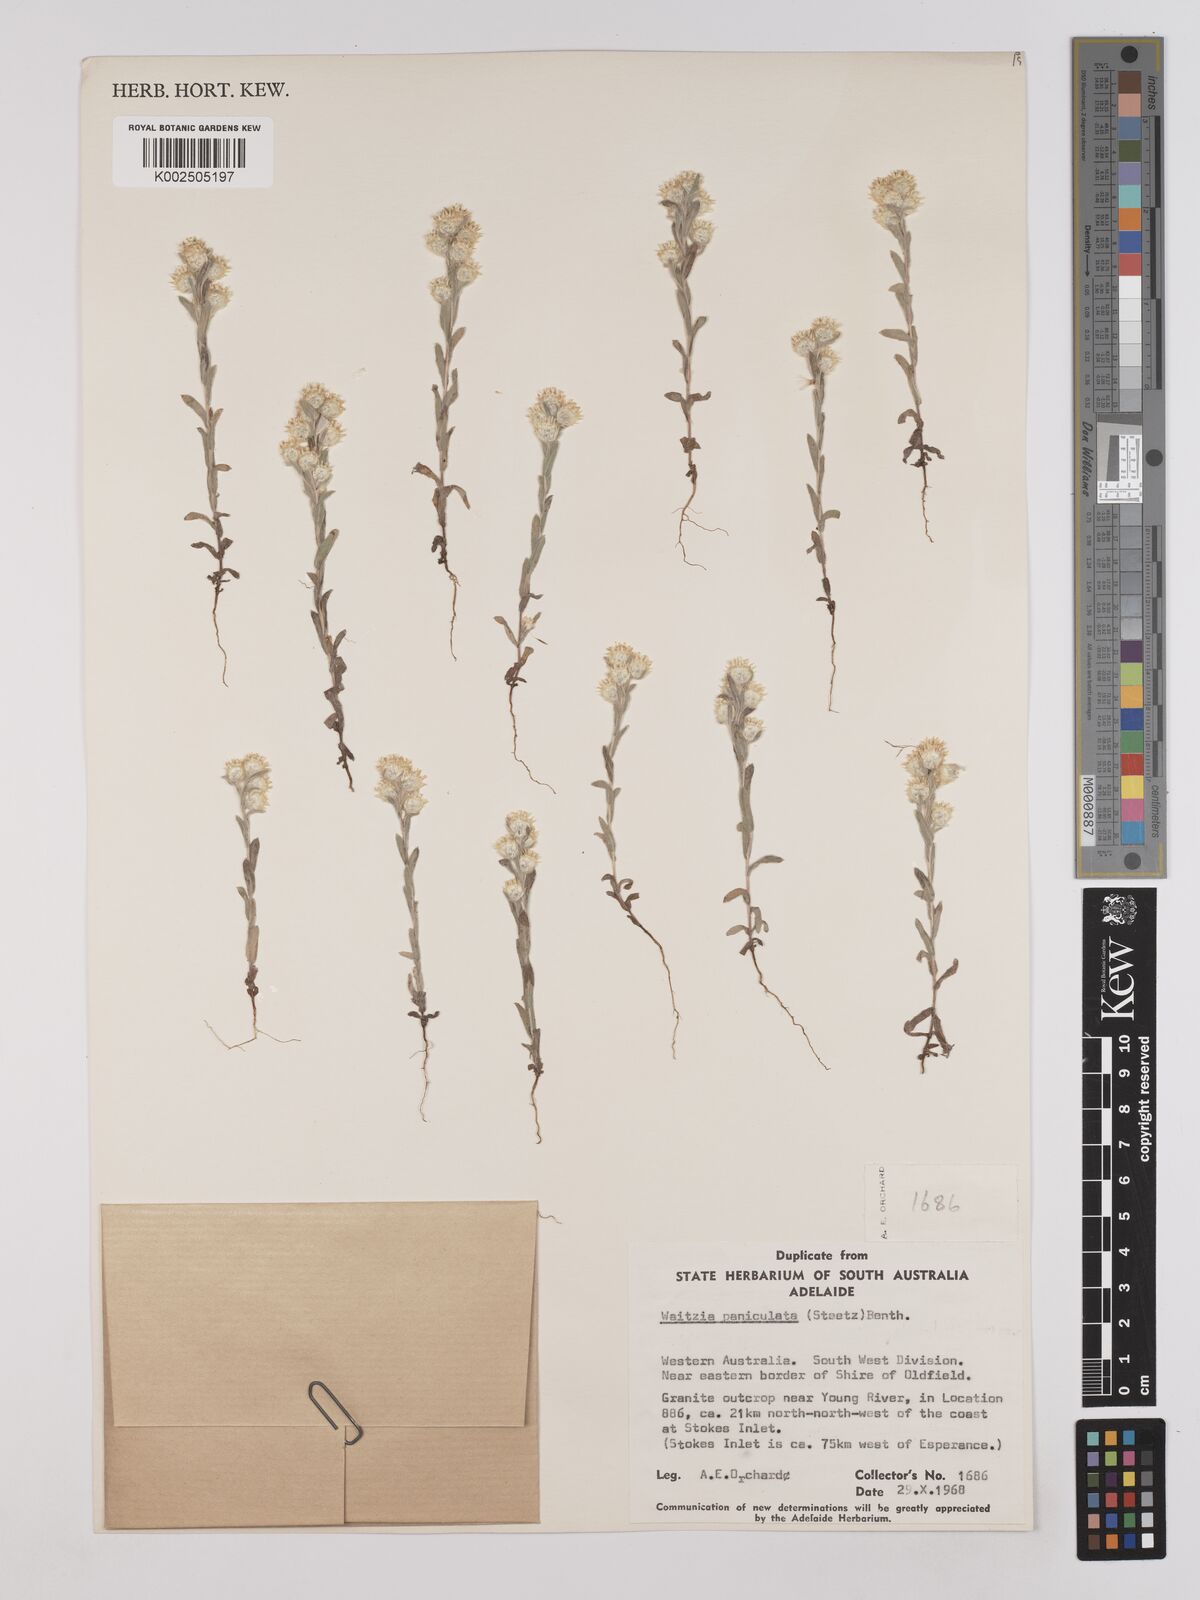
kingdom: Plantae
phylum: Tracheophyta
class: Magnoliopsida
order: Asterales
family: Asteraceae
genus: Pterochaeta
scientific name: Pterochaeta paniculata
